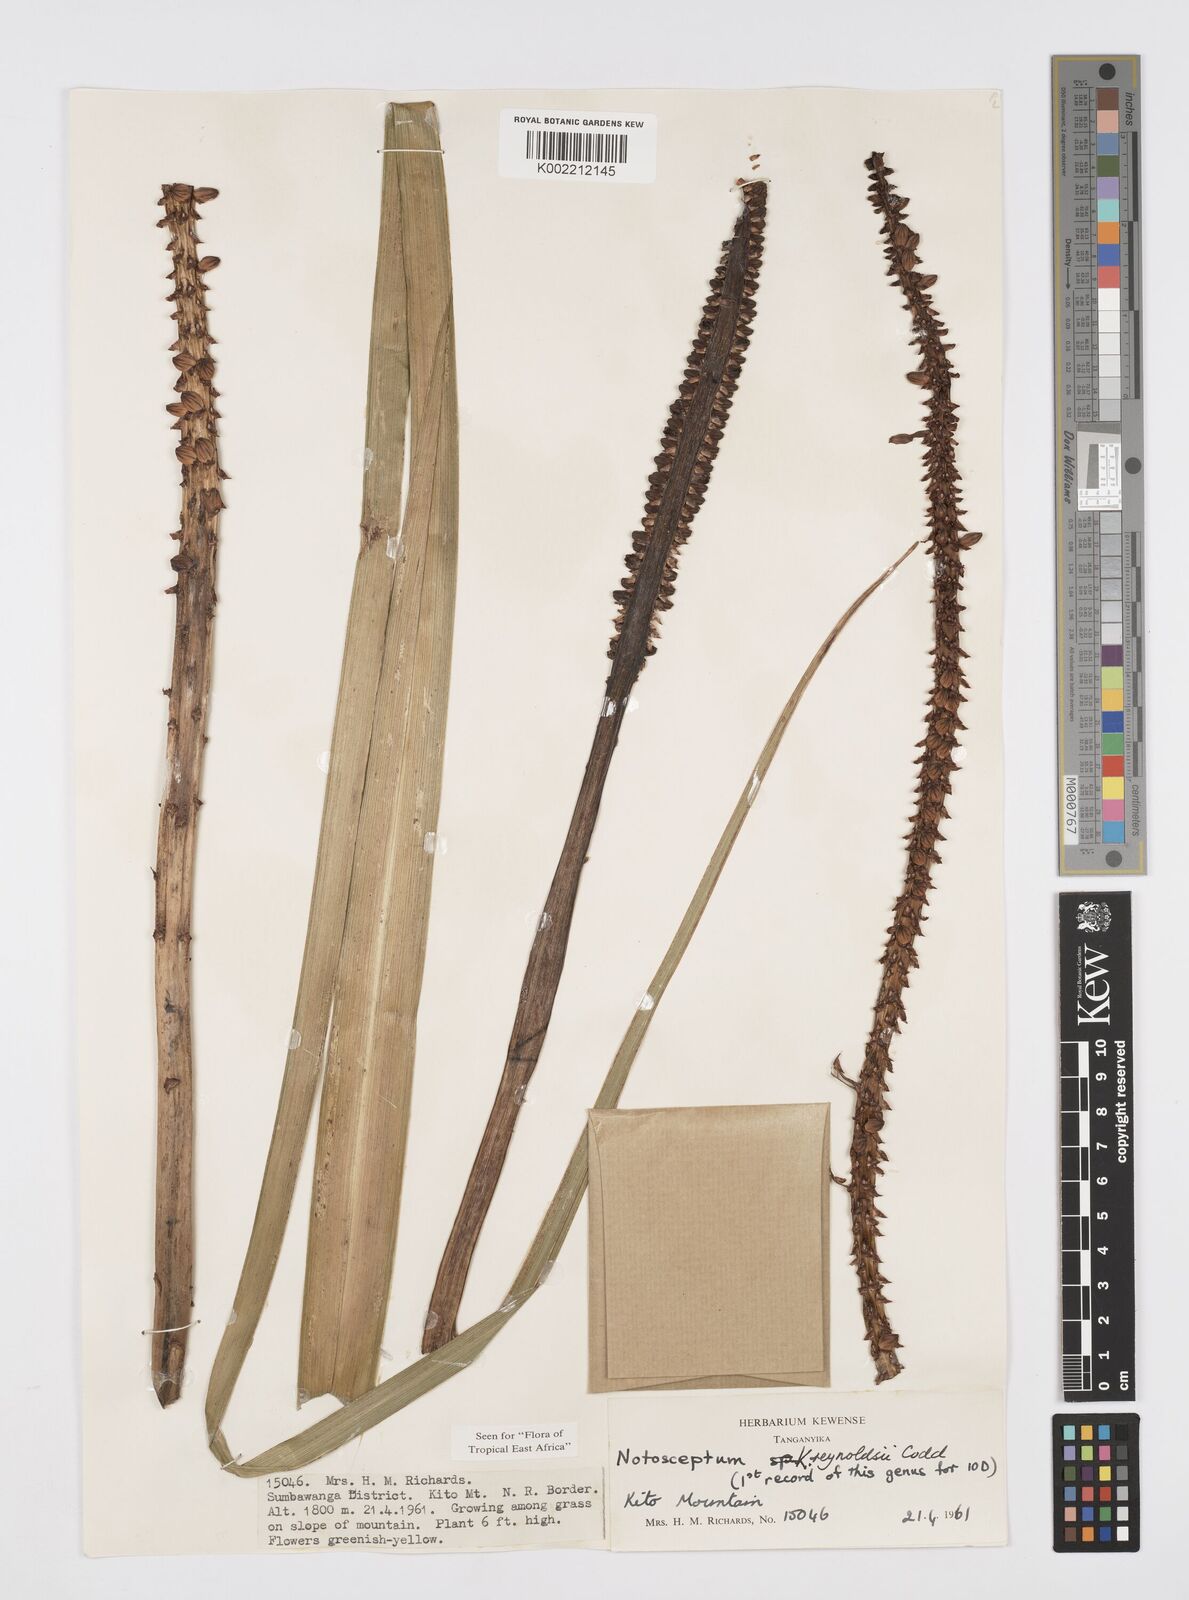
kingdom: Plantae
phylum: Tracheophyta
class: Liliopsida
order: Asparagales
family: Asphodelaceae
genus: Kniphofia
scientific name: Kniphofia reynoldsii
